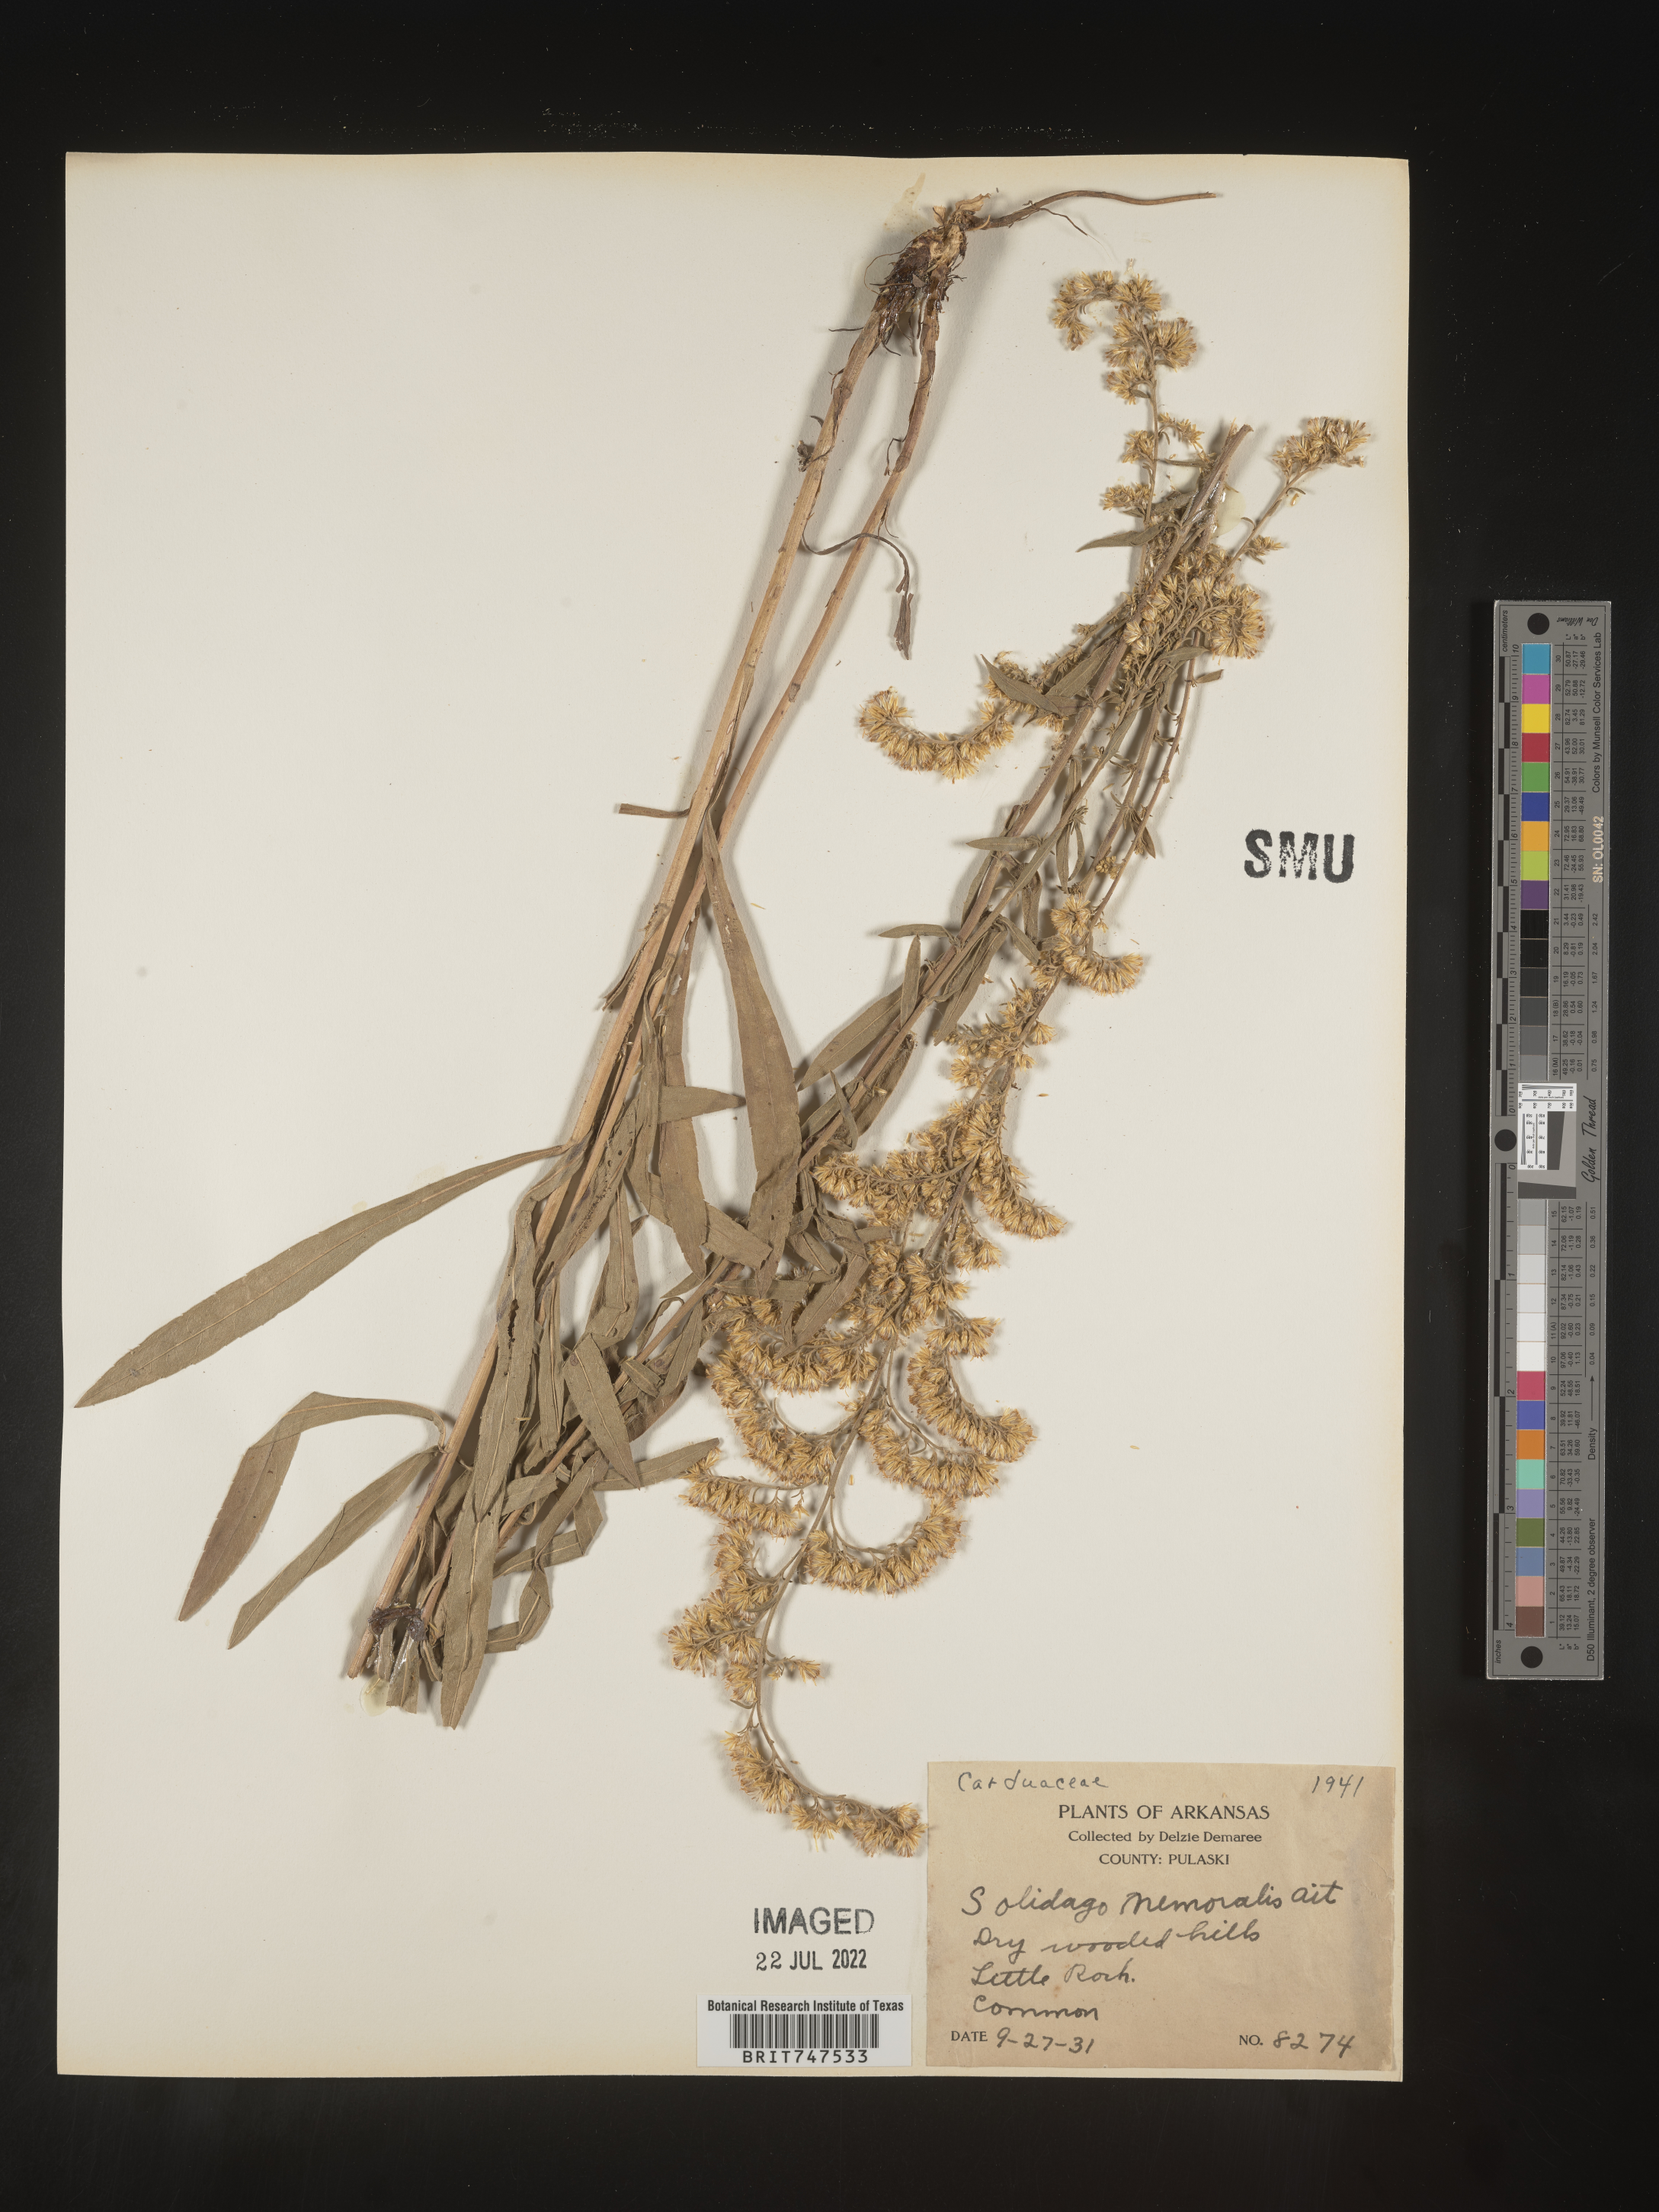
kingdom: Plantae
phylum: Tracheophyta
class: Magnoliopsida
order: Asterales
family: Asteraceae
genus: Solidago
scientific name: Solidago nemoralis
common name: Grey goldenrod
